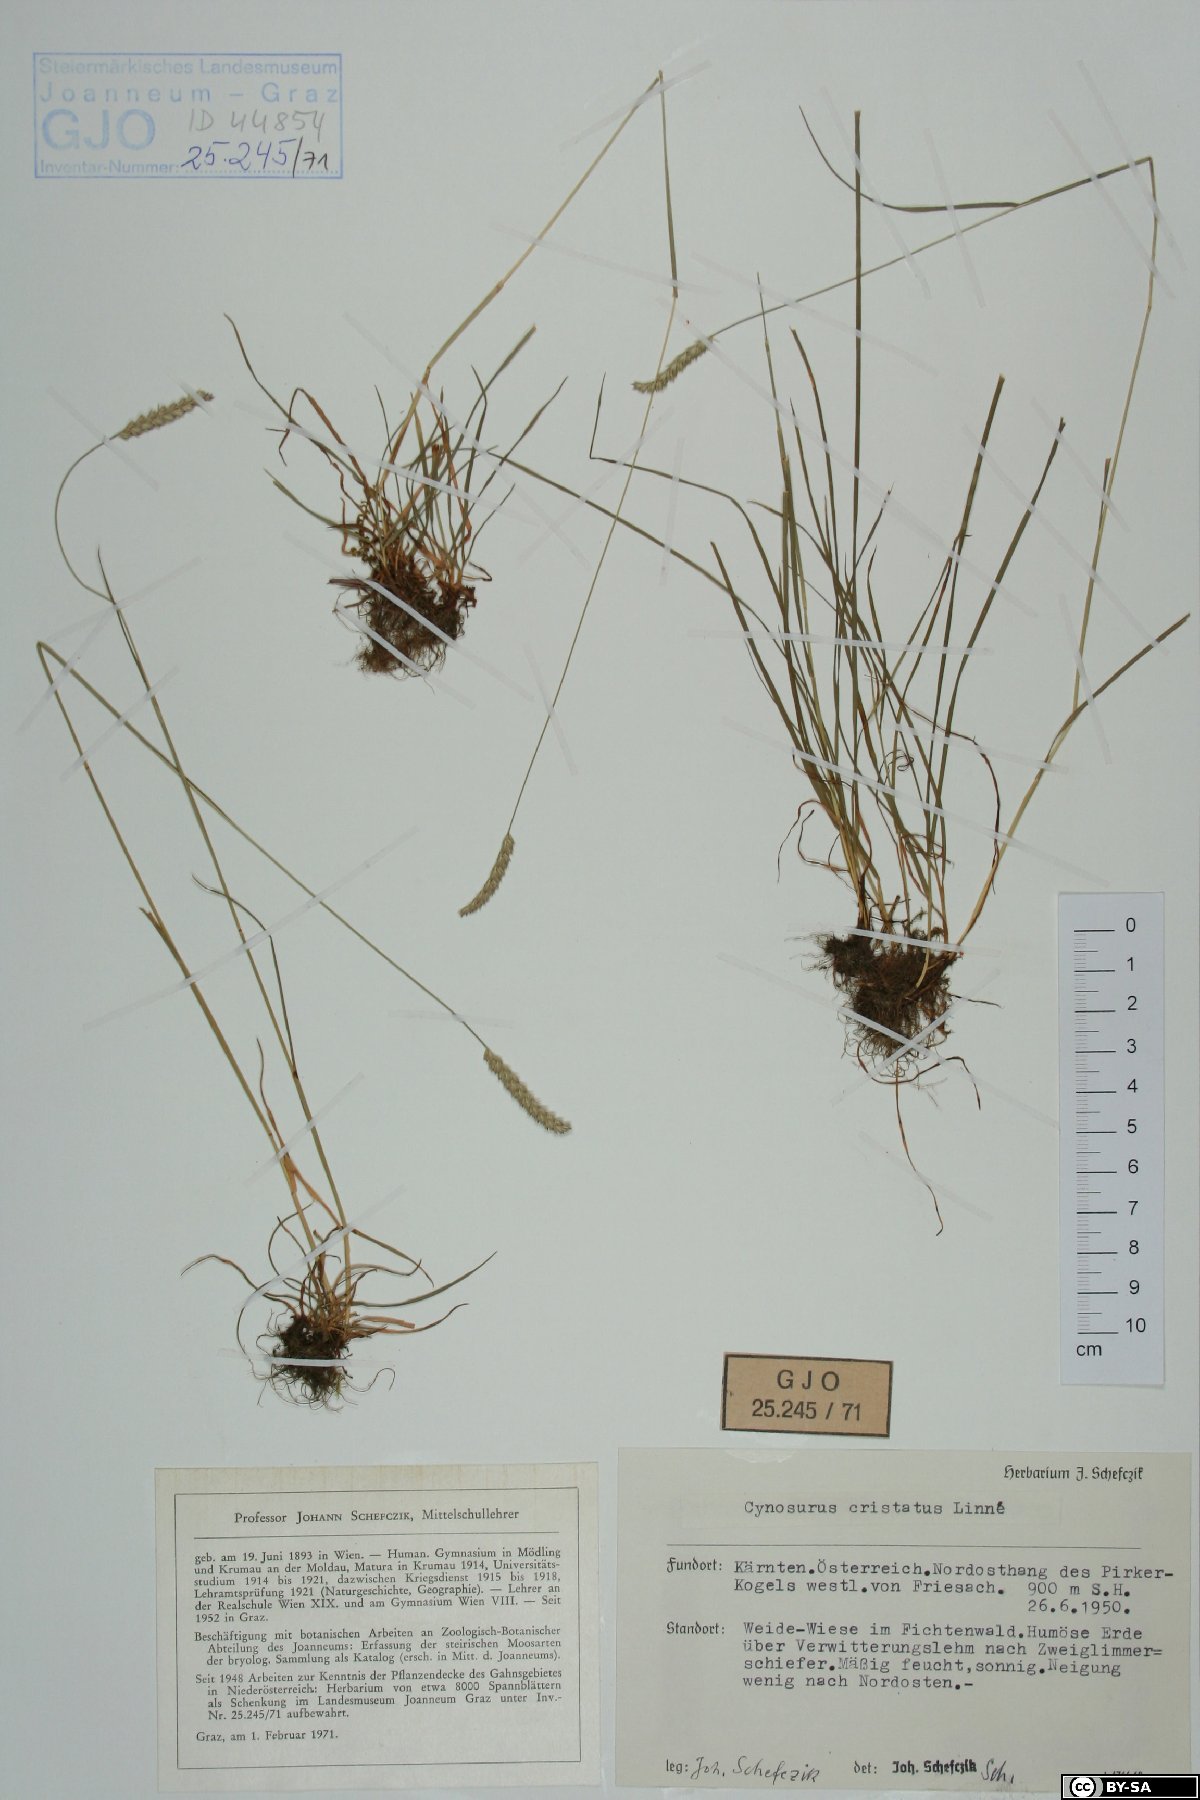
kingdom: Plantae
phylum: Tracheophyta
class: Liliopsida
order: Poales
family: Poaceae
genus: Cynosurus
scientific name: Cynosurus cristatus
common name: Crested dog's-tail
